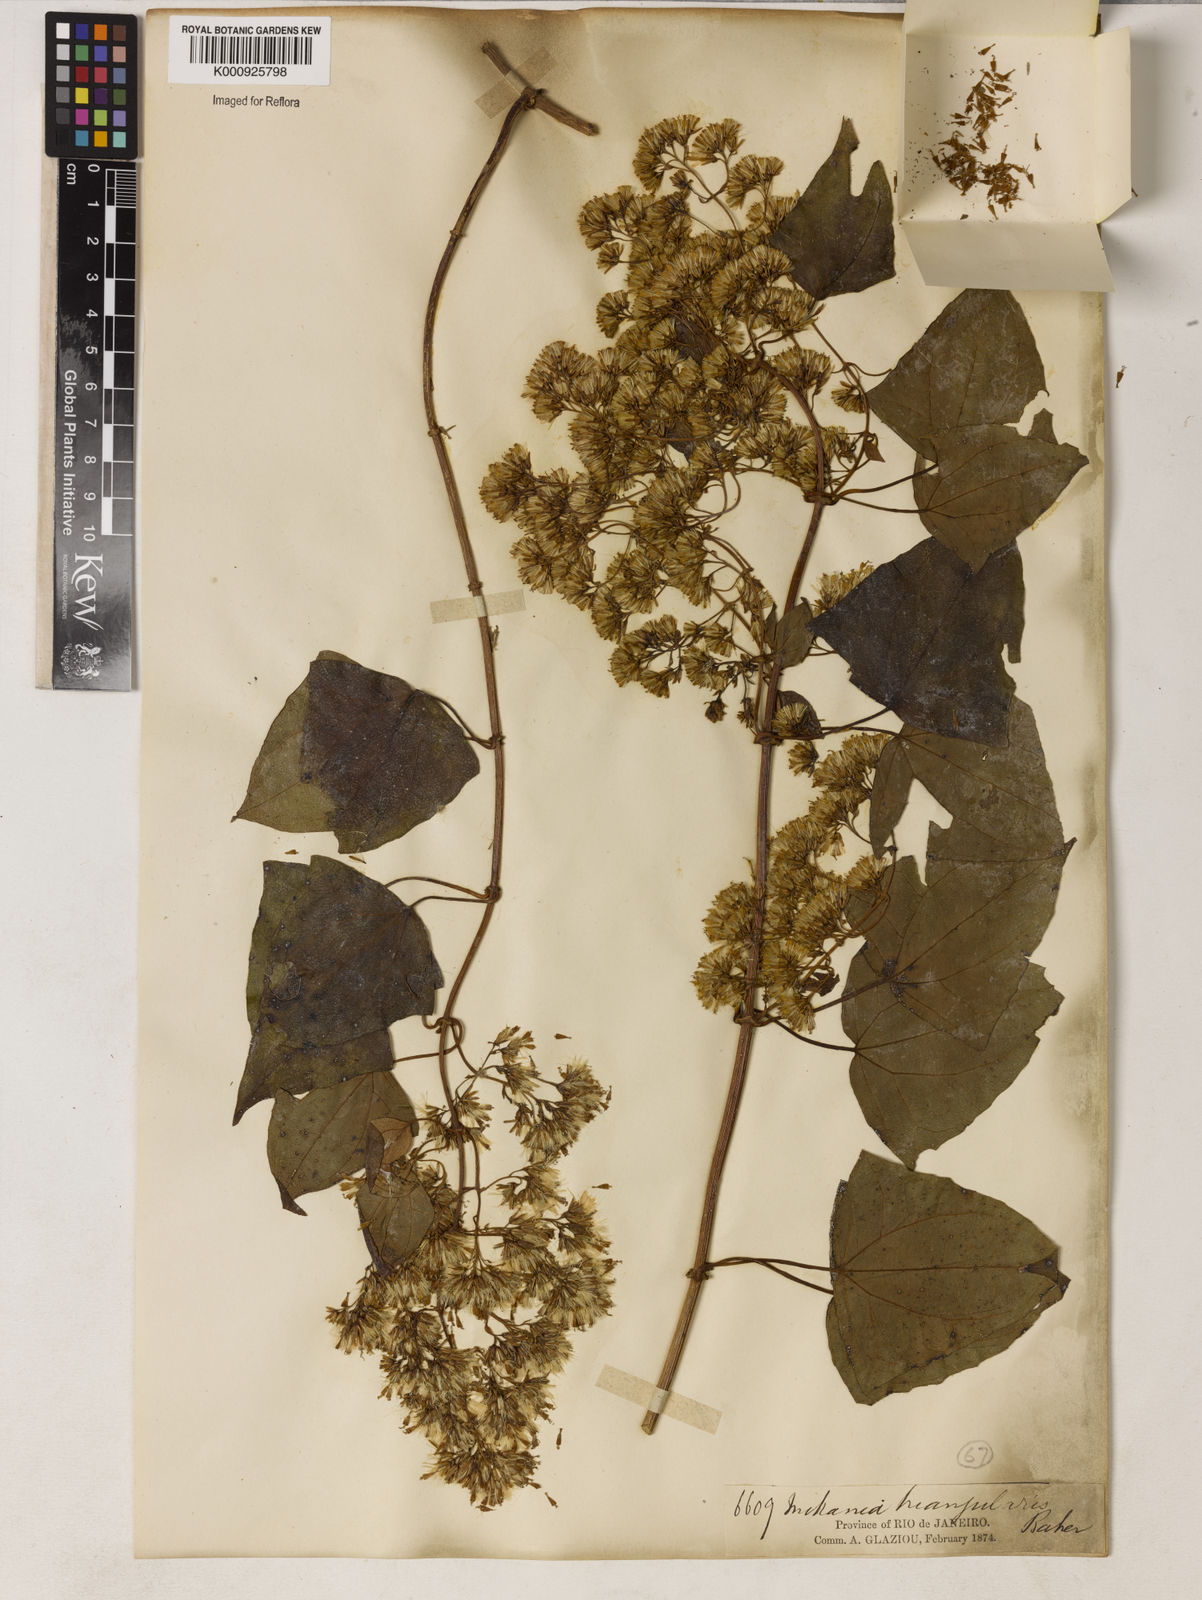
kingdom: Plantae
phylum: Tracheophyta
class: Magnoliopsida
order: Asterales
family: Asteraceae
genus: Mikania
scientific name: Mikania triangularis
